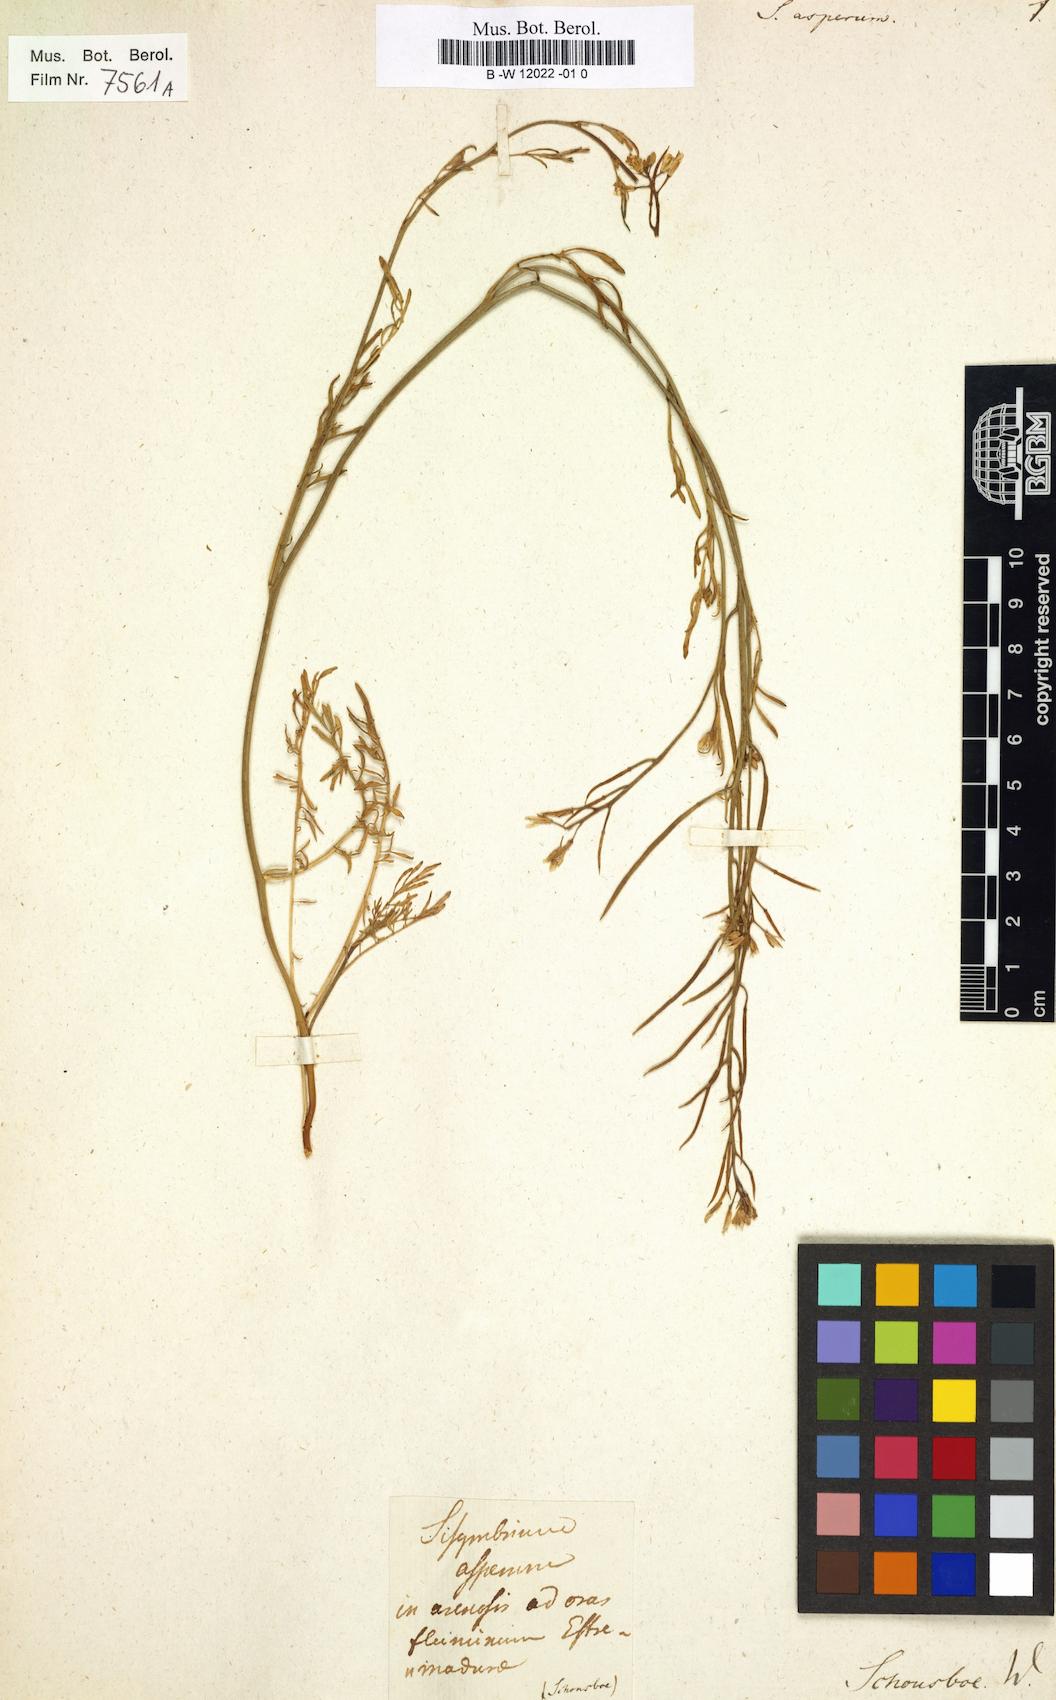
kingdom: Plantae
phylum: Tracheophyta
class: Magnoliopsida
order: Brassicales
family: Brassicaceae
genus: Sisymbrella
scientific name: Sisymbrella aspera
